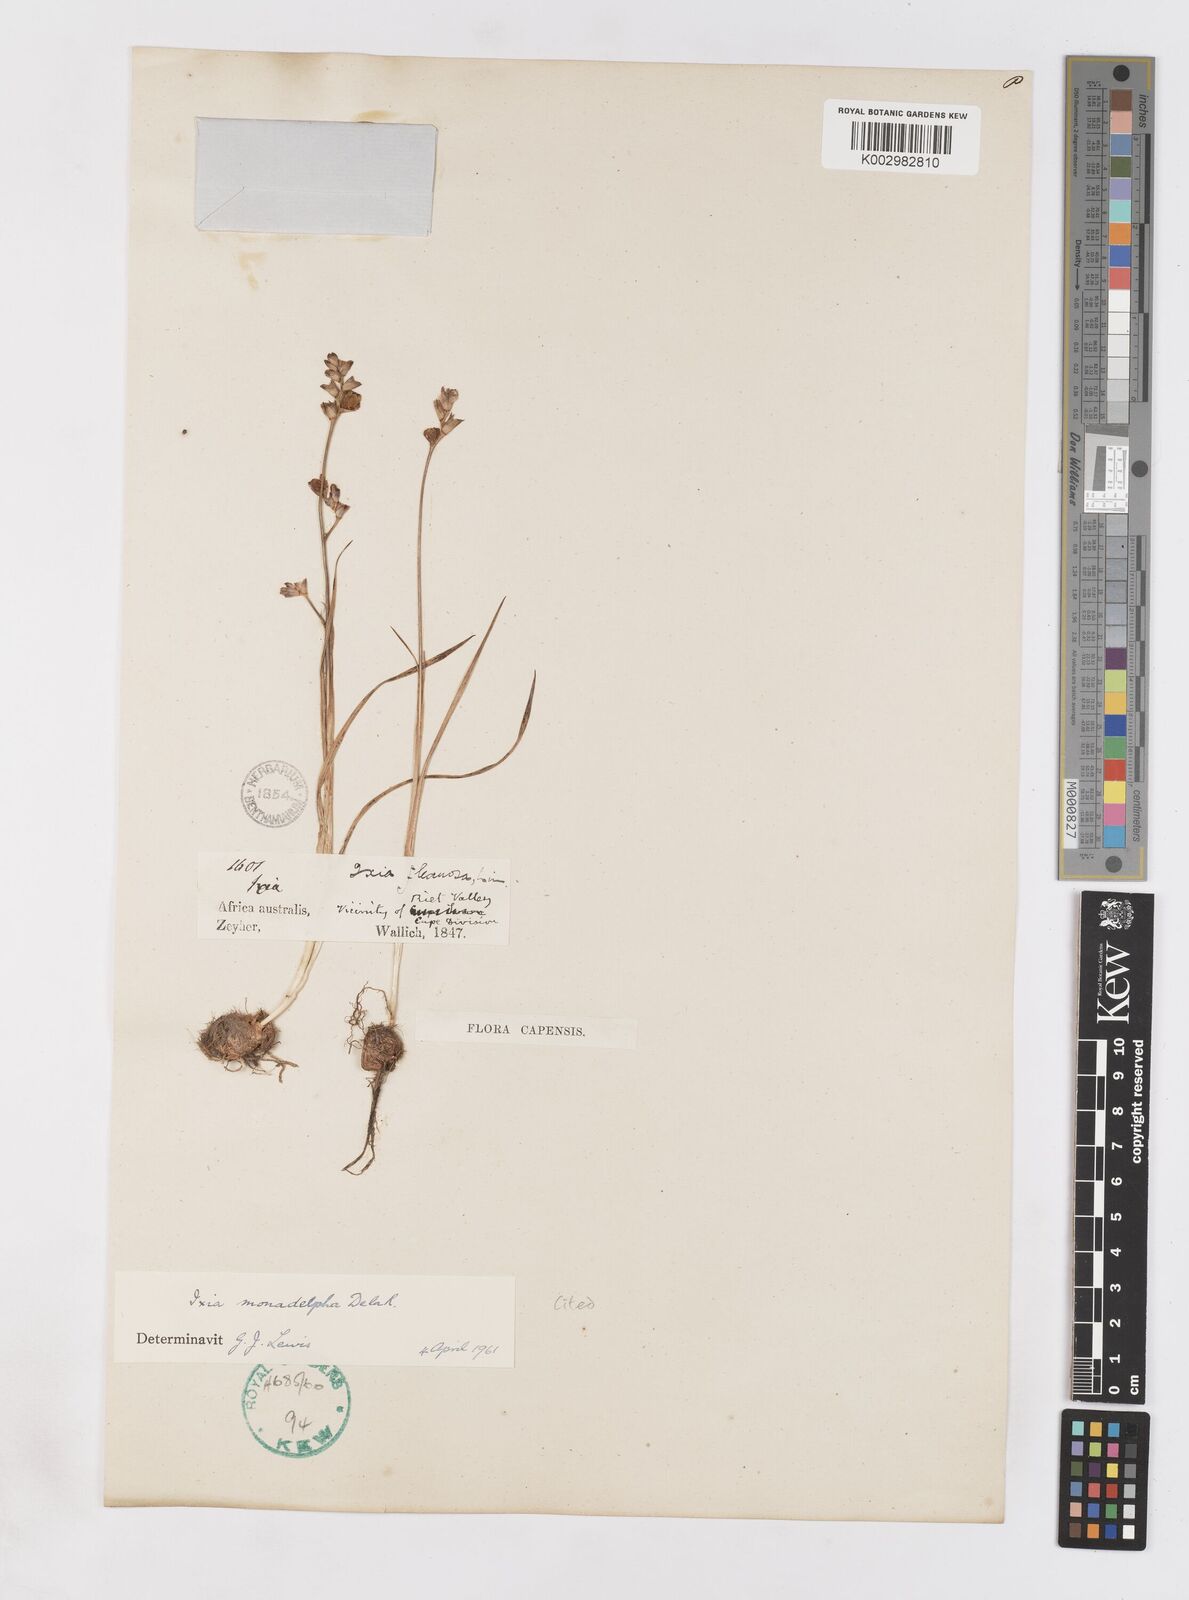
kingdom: Plantae
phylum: Tracheophyta
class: Liliopsida
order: Asparagales
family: Iridaceae
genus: Ixia
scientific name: Ixia monadelpha
